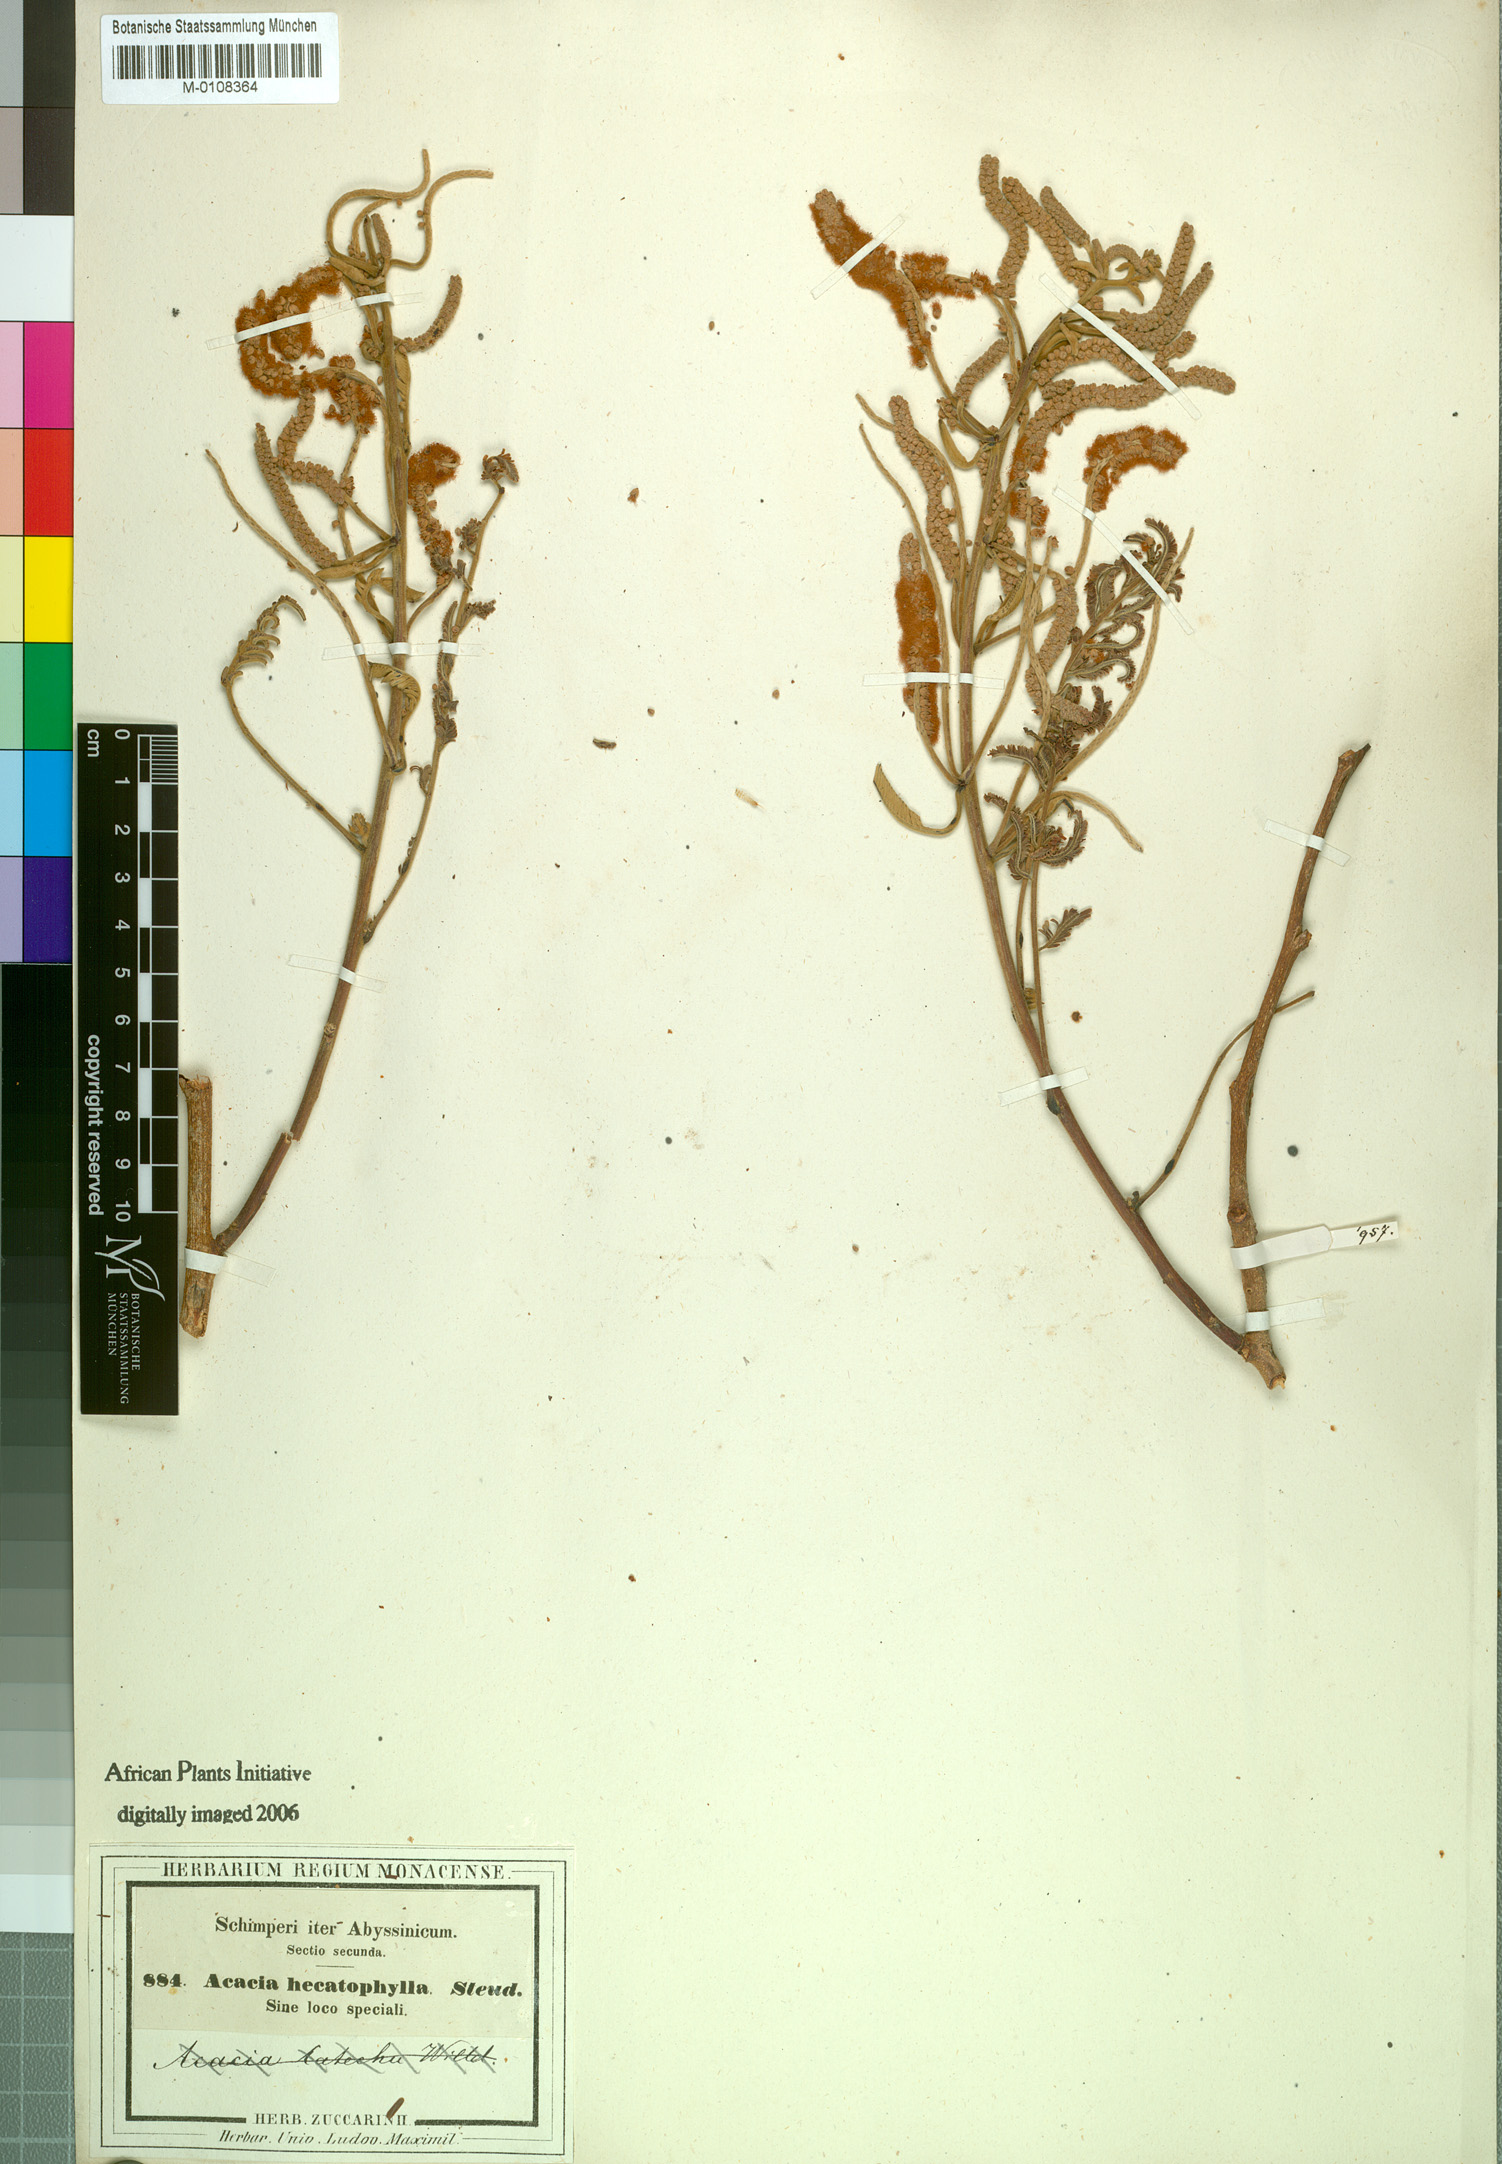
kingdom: Plantae
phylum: Tracheophyta
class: Magnoliopsida
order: Fabales
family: Fabaceae
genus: Senegalia
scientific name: Senegalia hecatophylla
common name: Long pod
